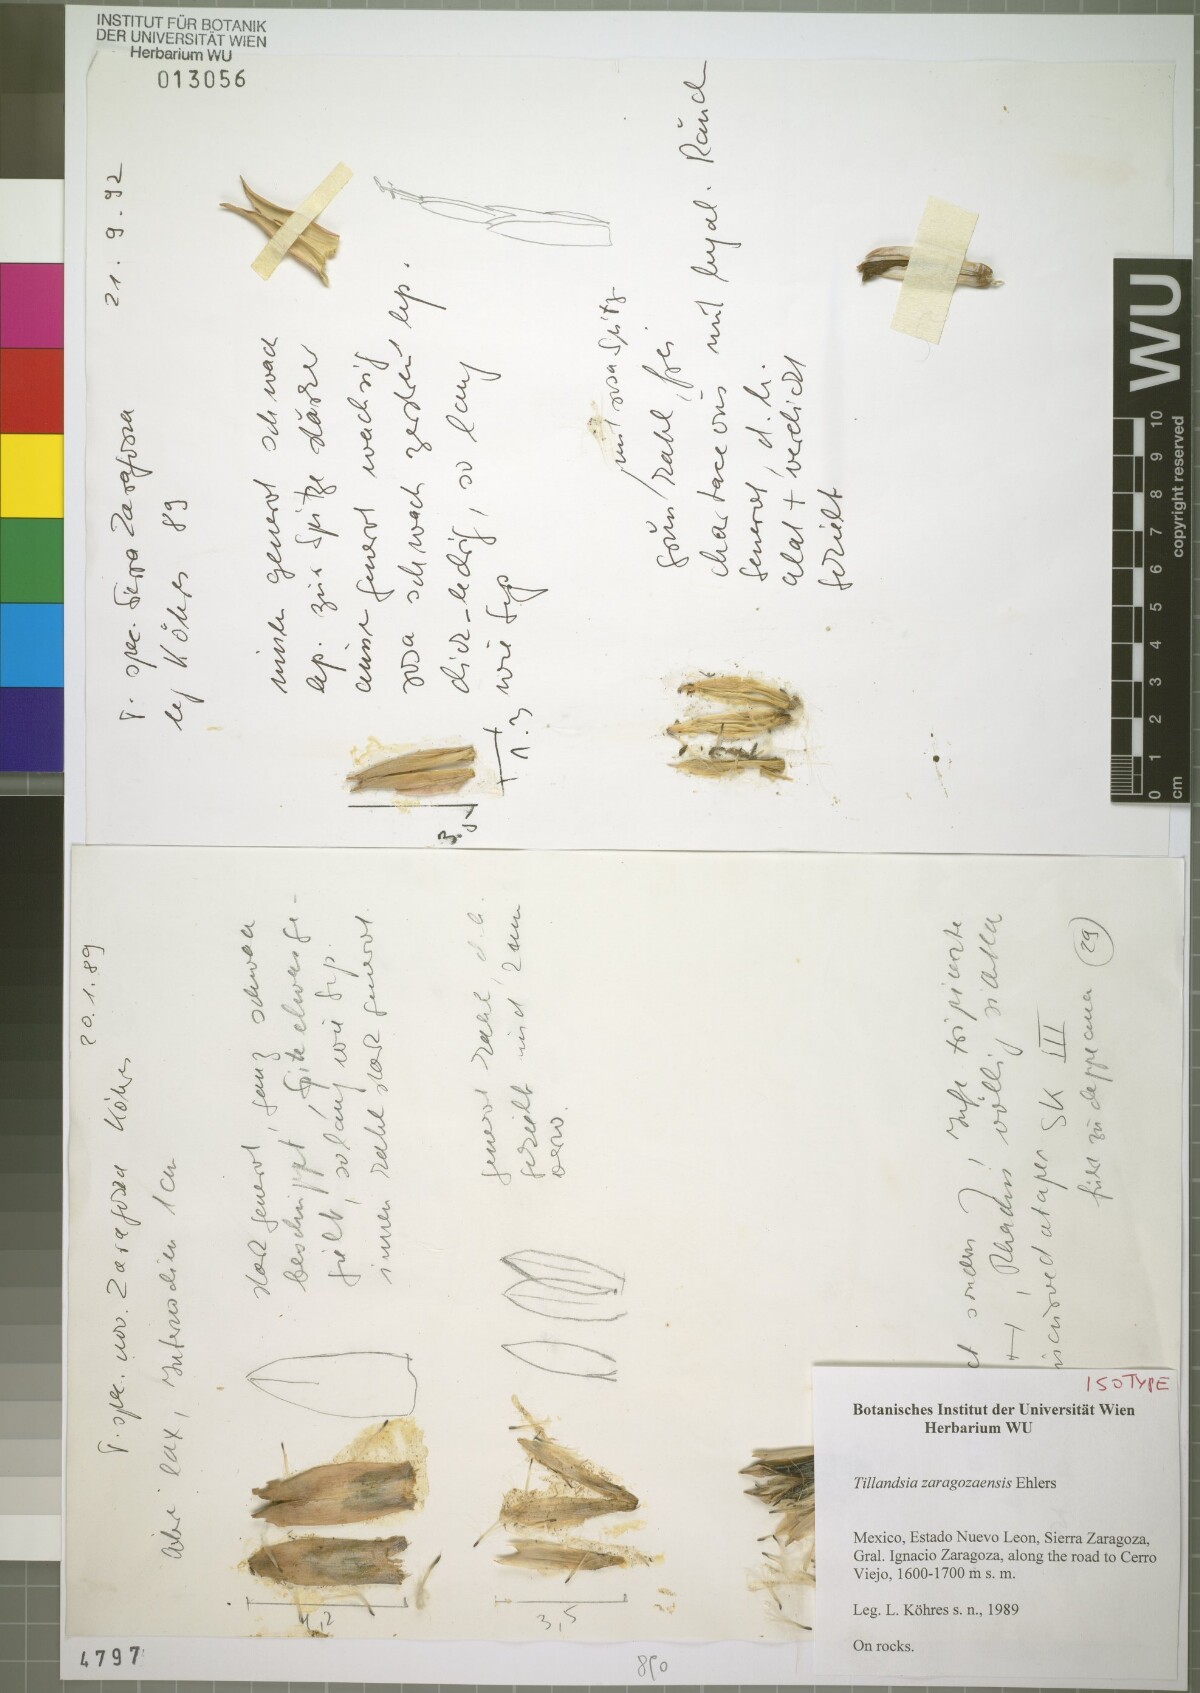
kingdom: Plantae
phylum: Tracheophyta
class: Liliopsida
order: Poales
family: Bromeliaceae
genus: Tillandsia
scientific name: Tillandsia zaragozaensis
